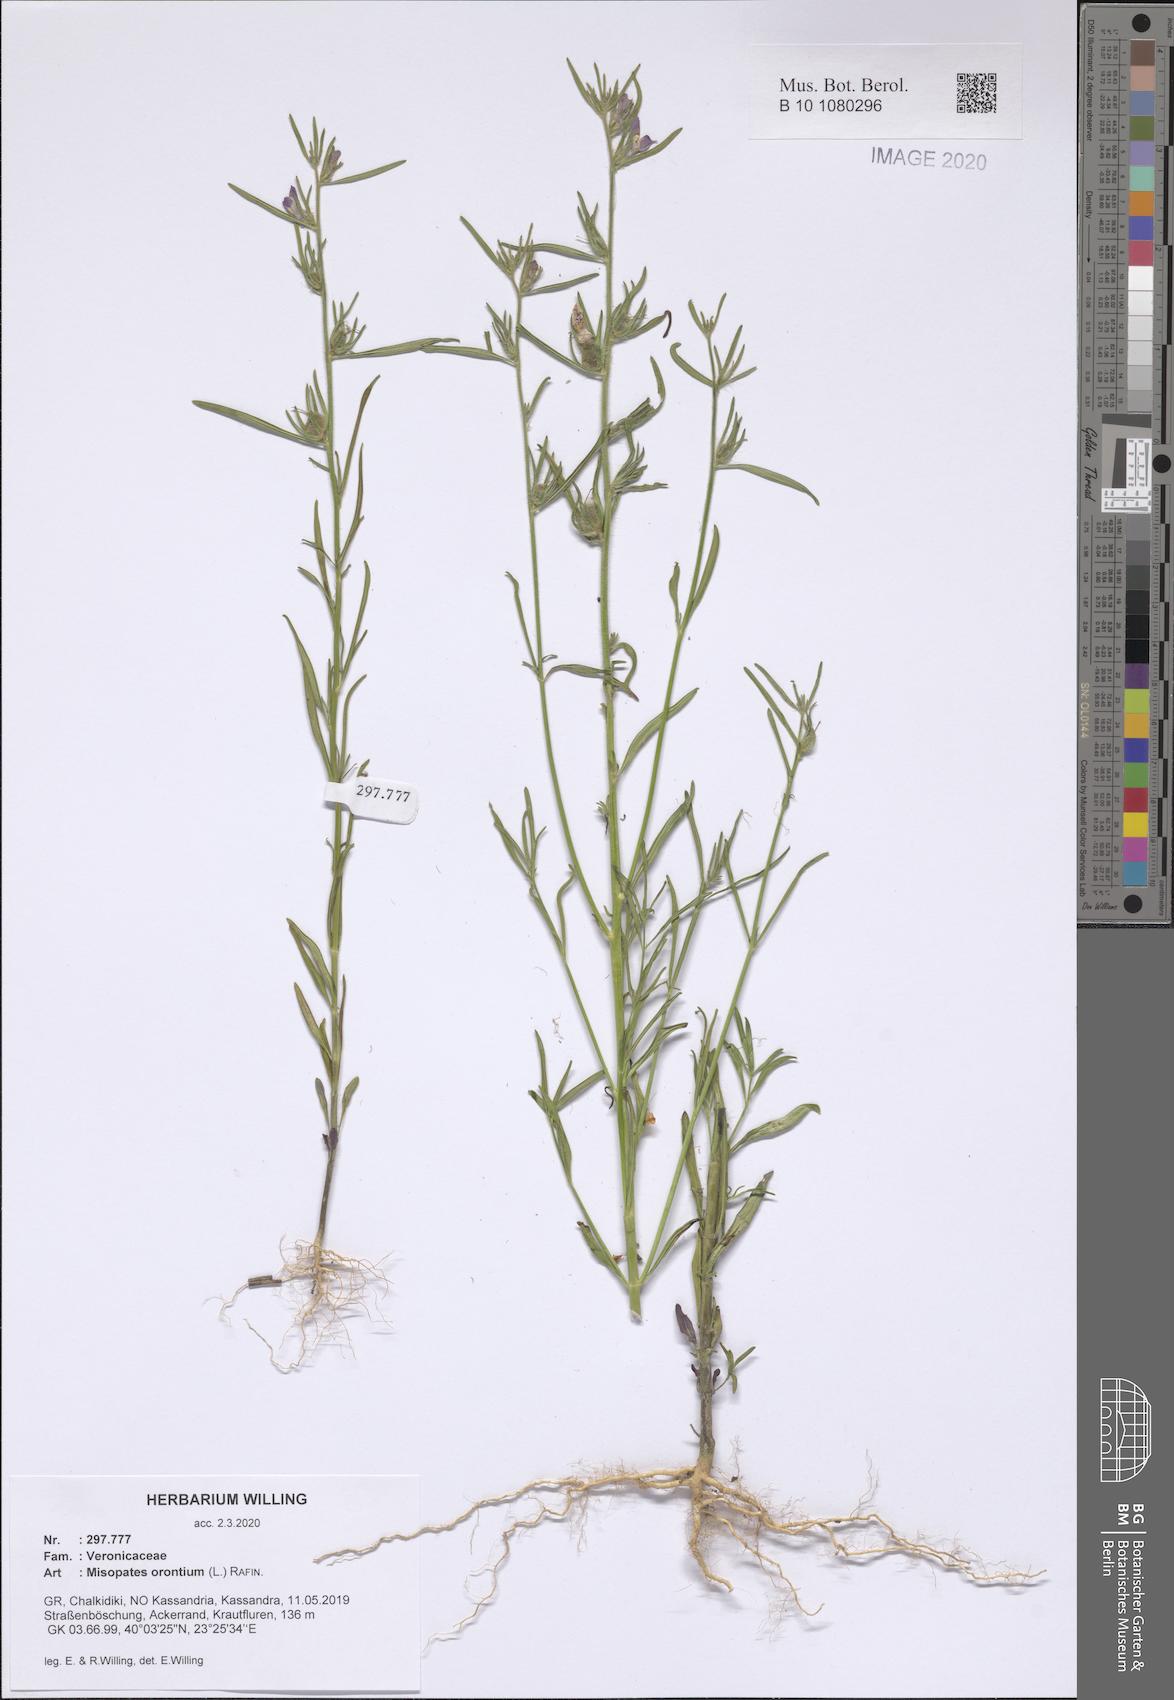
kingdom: Plantae
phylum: Tracheophyta
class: Magnoliopsida
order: Lamiales
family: Plantaginaceae
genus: Misopates
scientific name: Misopates orontium
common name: Weasel's-snout
